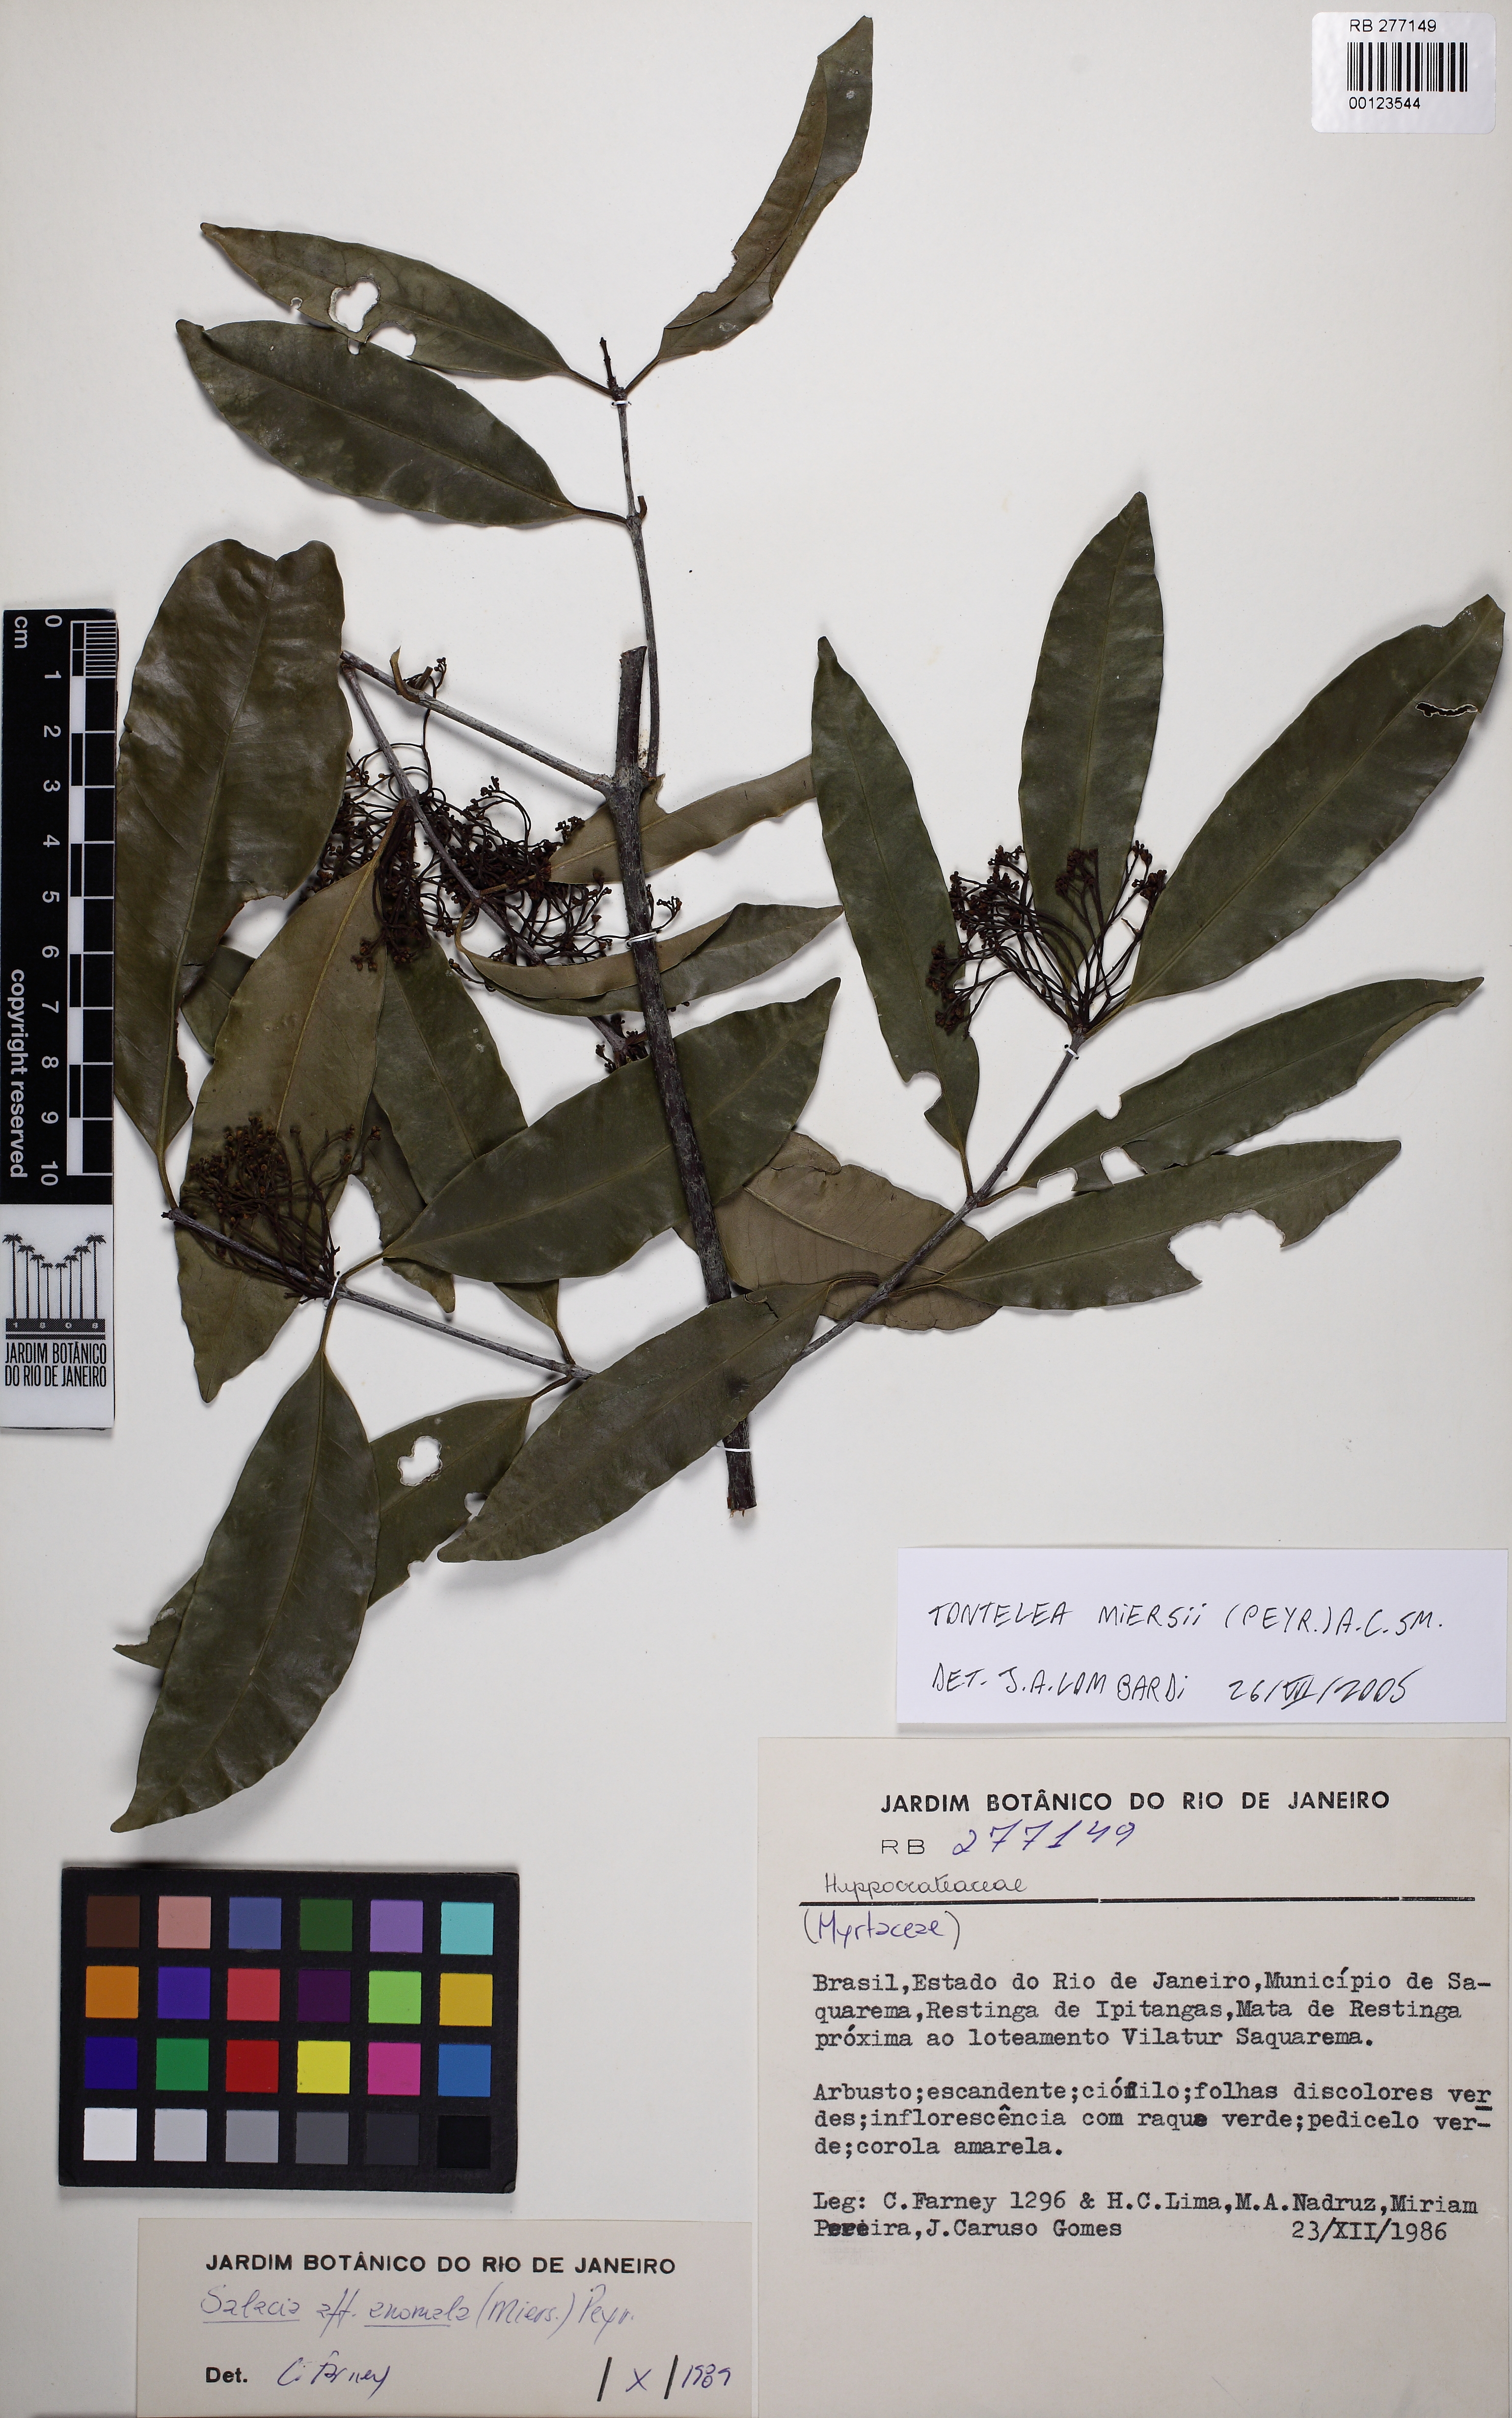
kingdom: Plantae
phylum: Tracheophyta
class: Magnoliopsida
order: Celastrales
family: Celastraceae
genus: Tontelea
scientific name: Tontelea miersii
